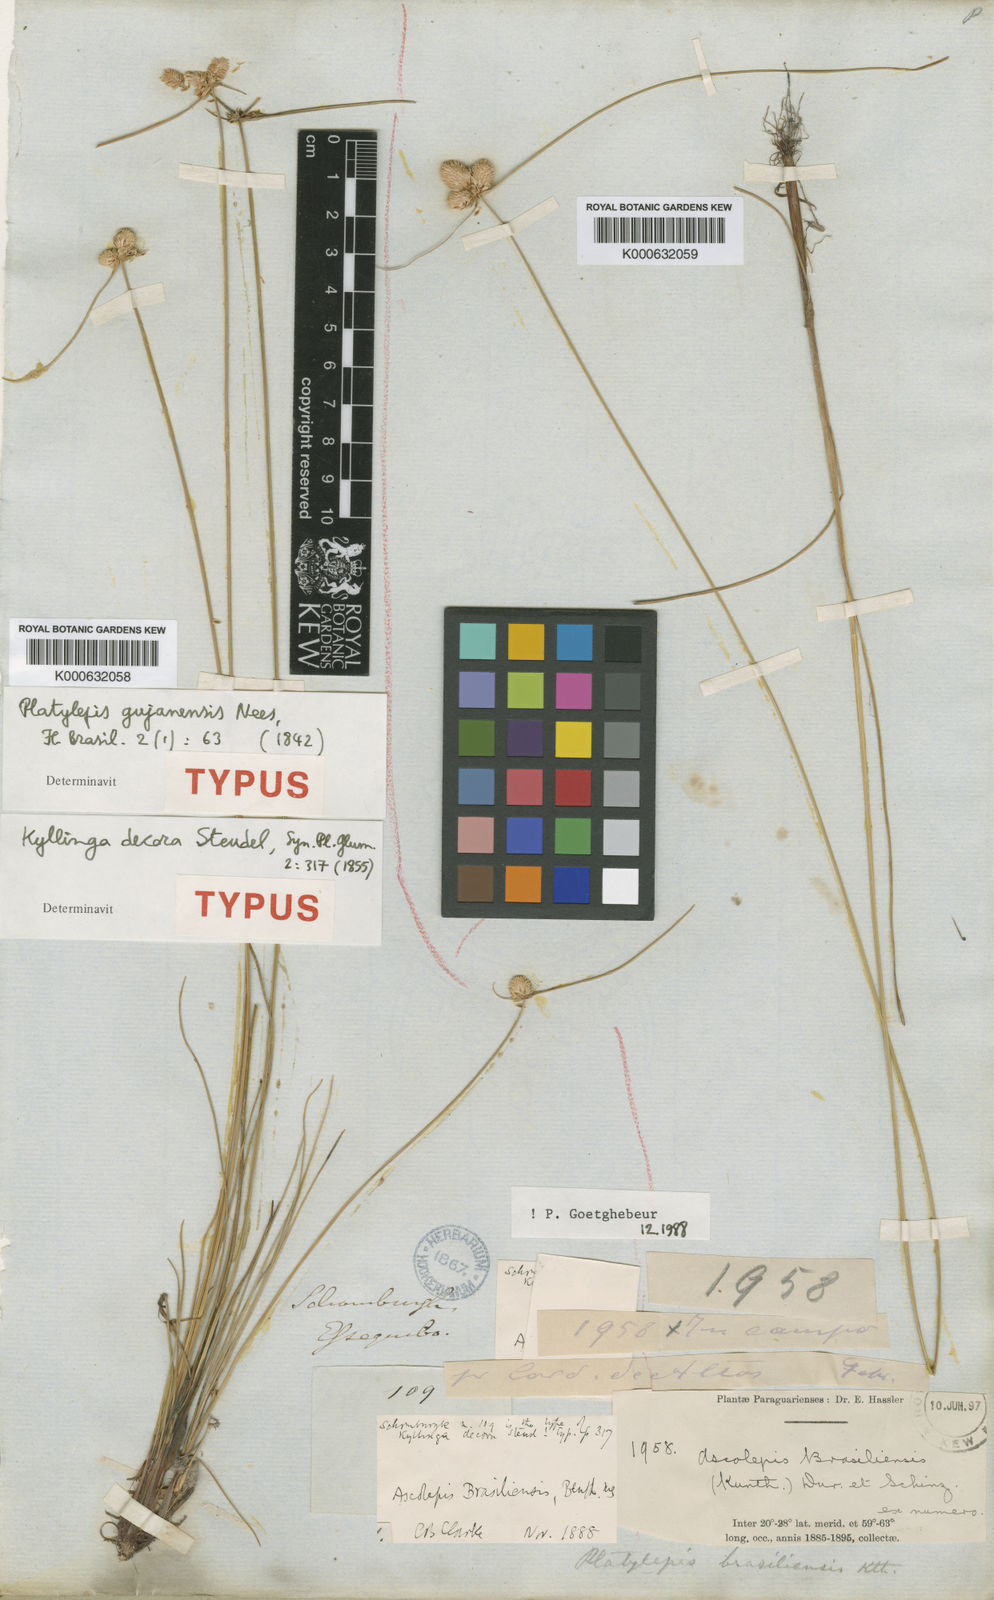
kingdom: Plantae
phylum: Tracheophyta
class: Liliopsida
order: Poales
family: Cyperaceae
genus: Cyperus
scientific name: Cyperus brasiliensis
